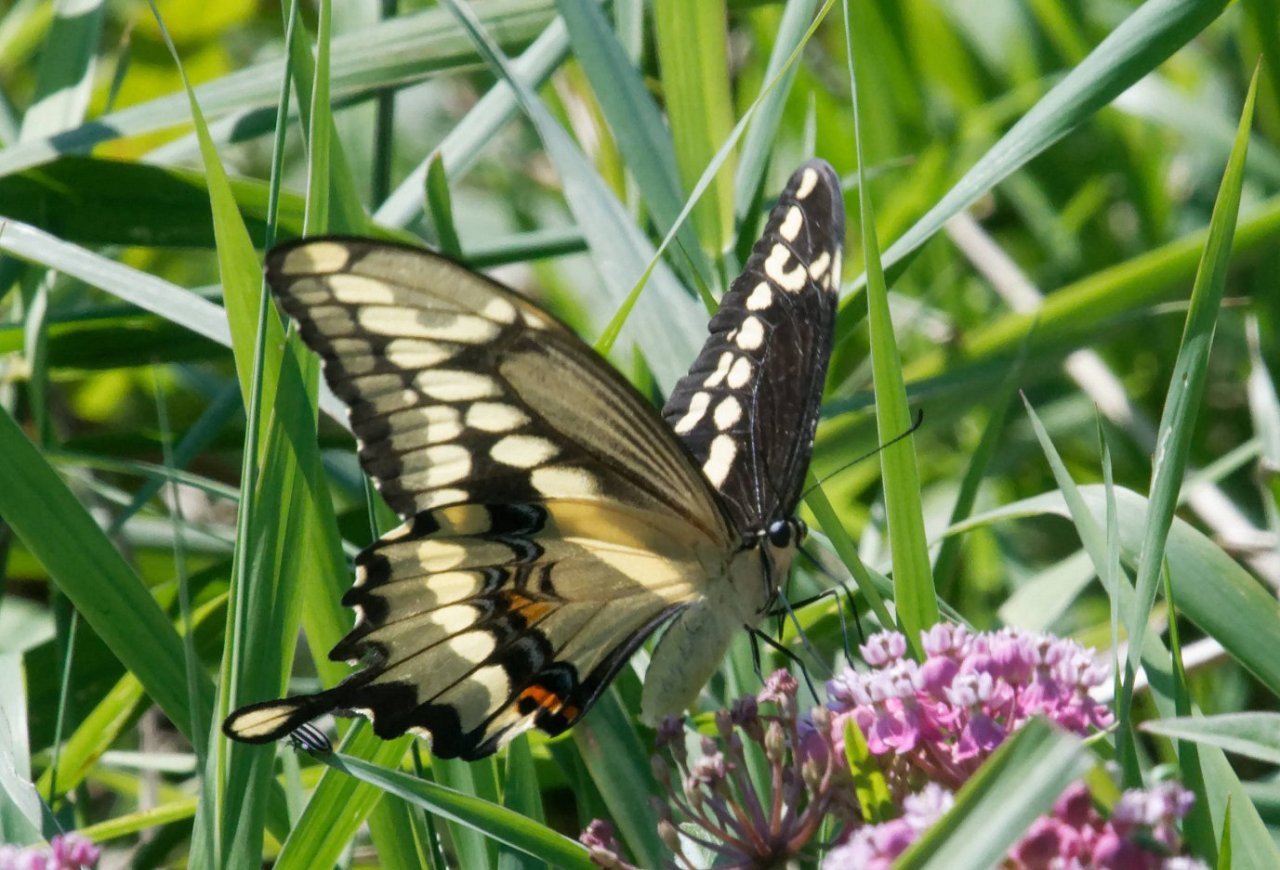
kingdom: Animalia
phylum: Arthropoda
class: Insecta
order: Lepidoptera
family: Papilionidae
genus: Papilio
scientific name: Papilio cresphontes
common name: Eastern Giant Swallowtail
